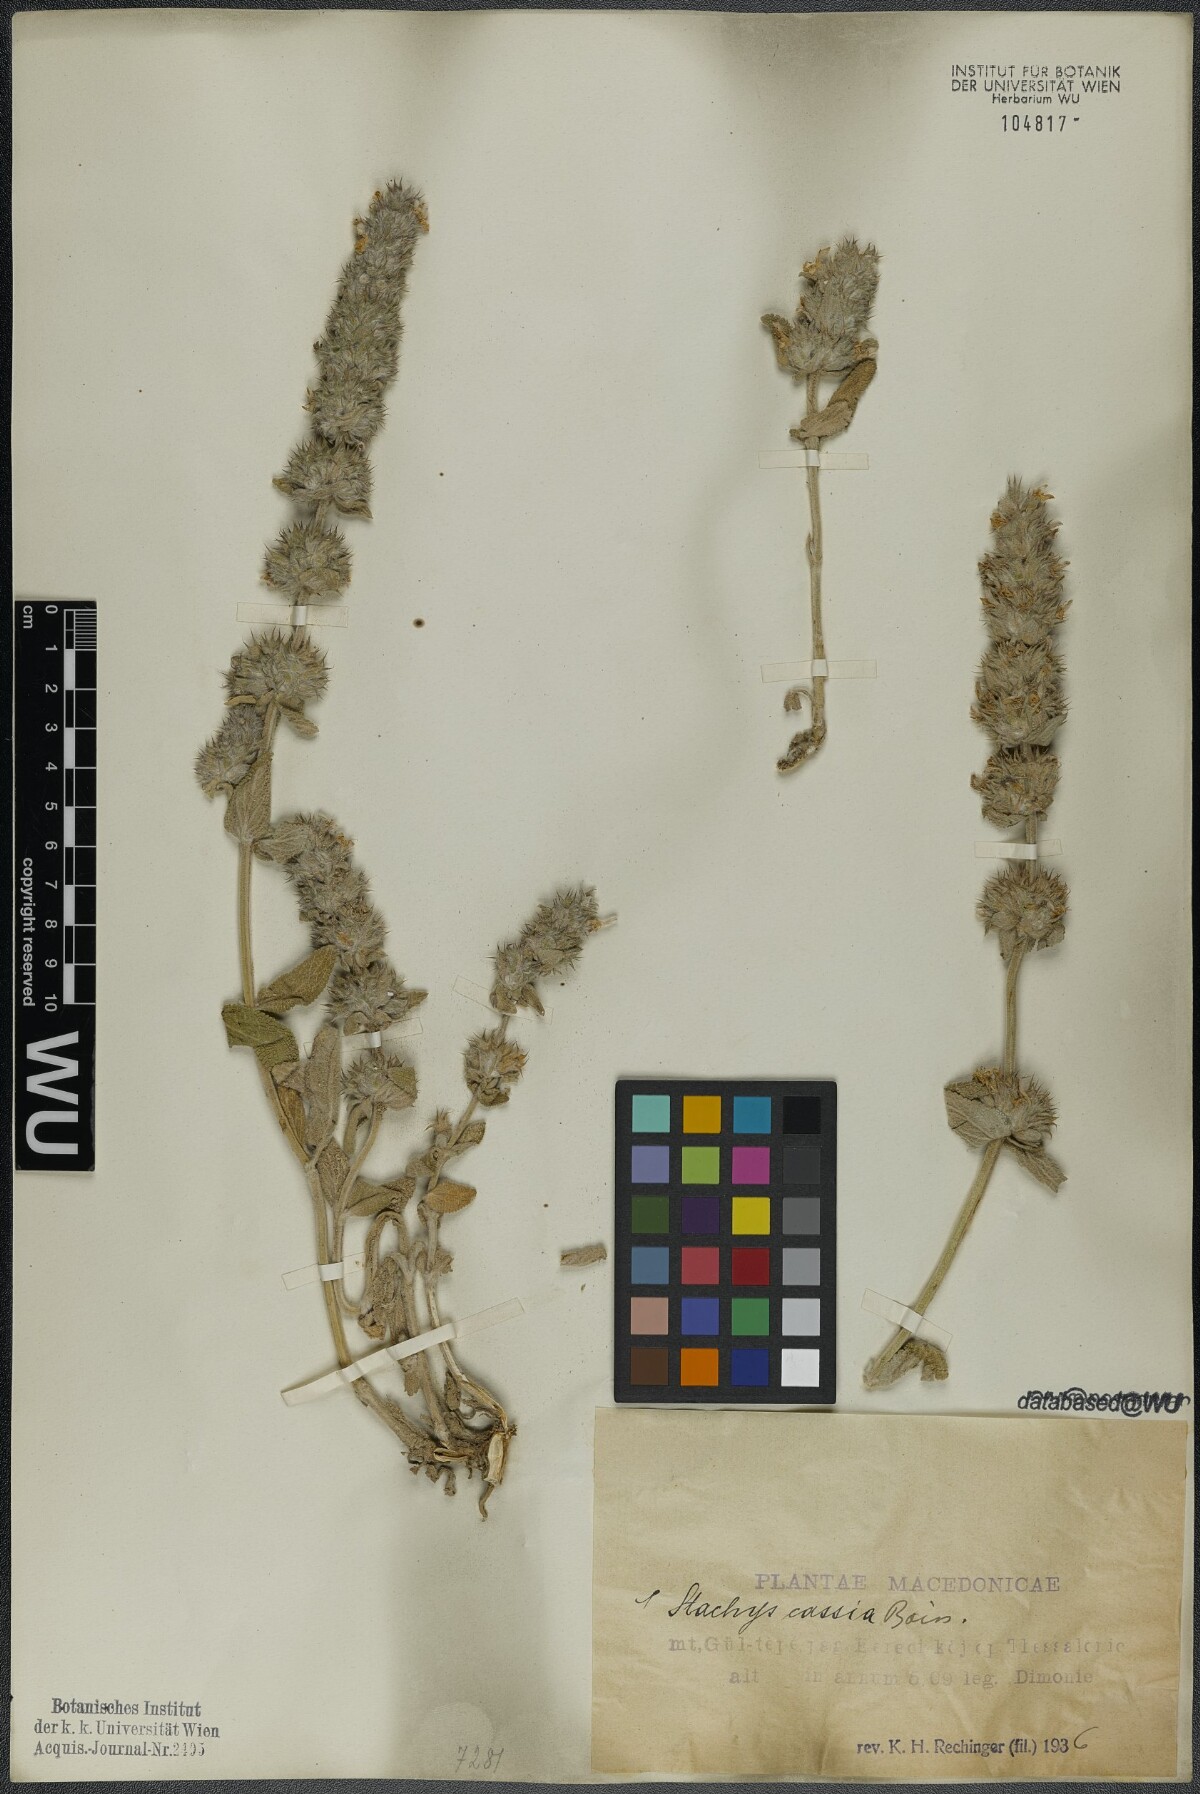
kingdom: Plantae
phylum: Tracheophyta
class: Magnoliopsida
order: Lamiales
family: Lamiaceae
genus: Stachys
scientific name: Stachys cretica
